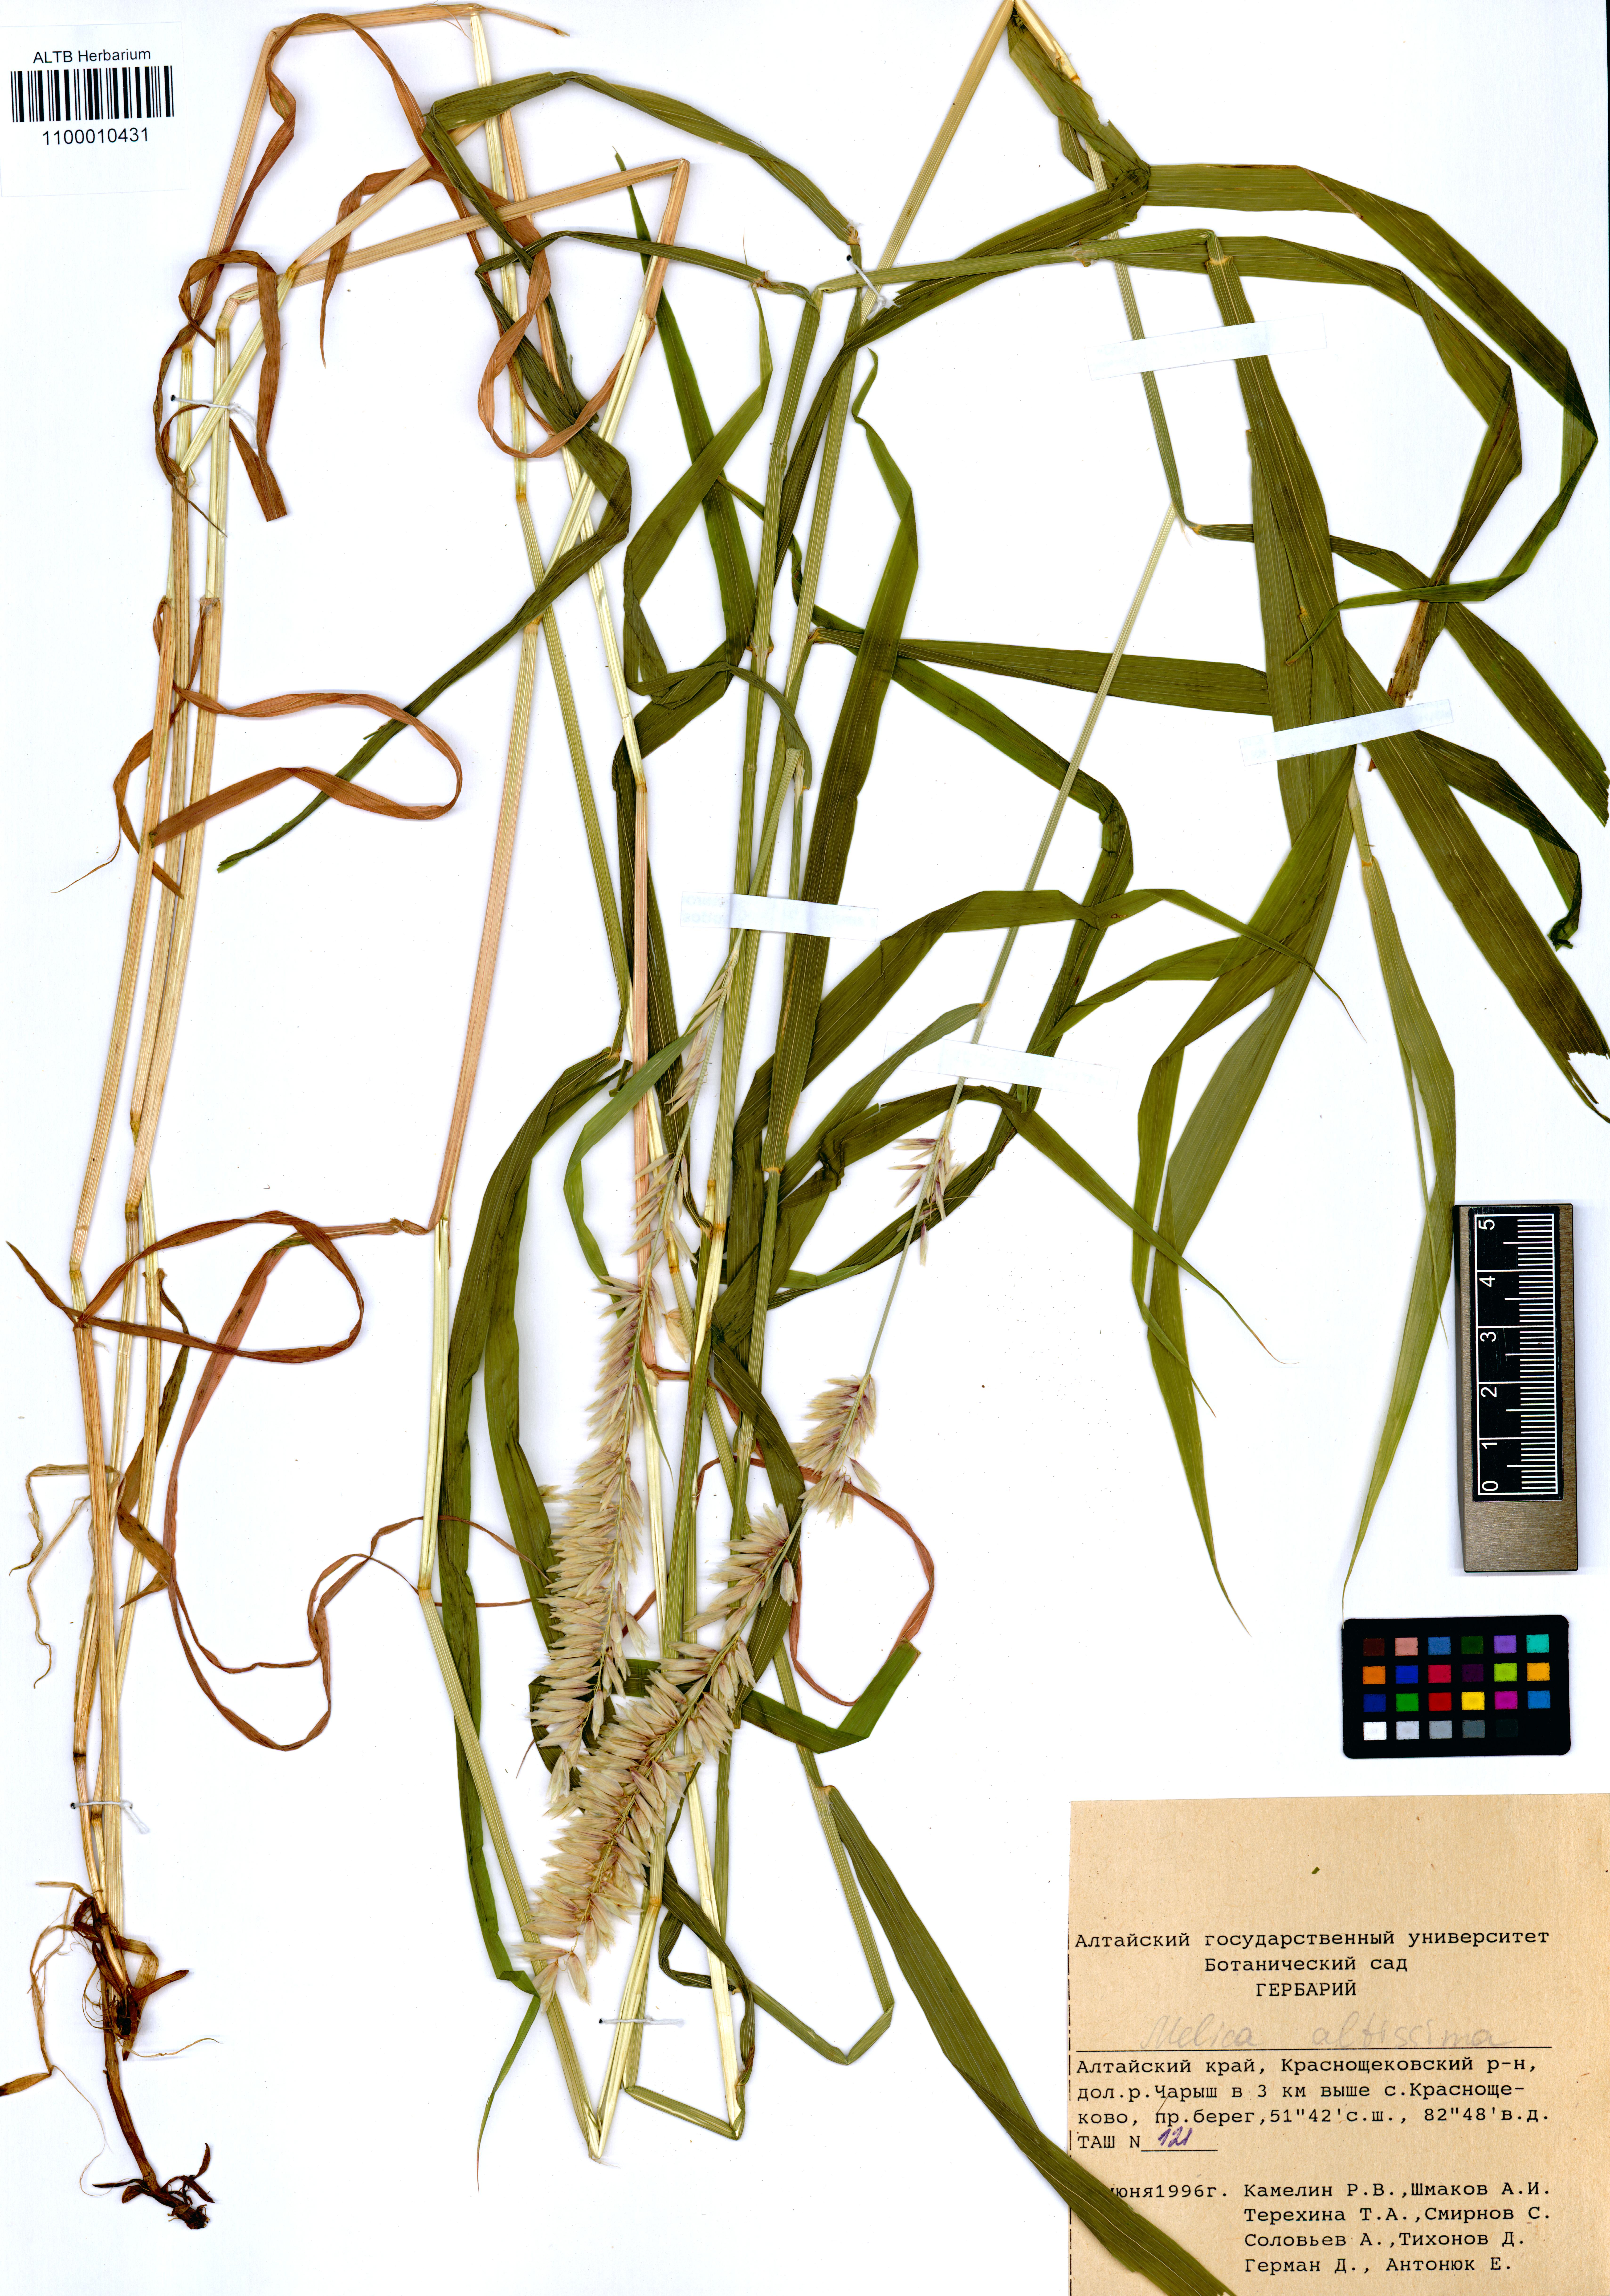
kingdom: Plantae
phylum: Tracheophyta
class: Liliopsida
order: Poales
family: Poaceae
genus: Melica
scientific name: Melica altissima
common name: Siberian melicgrass
